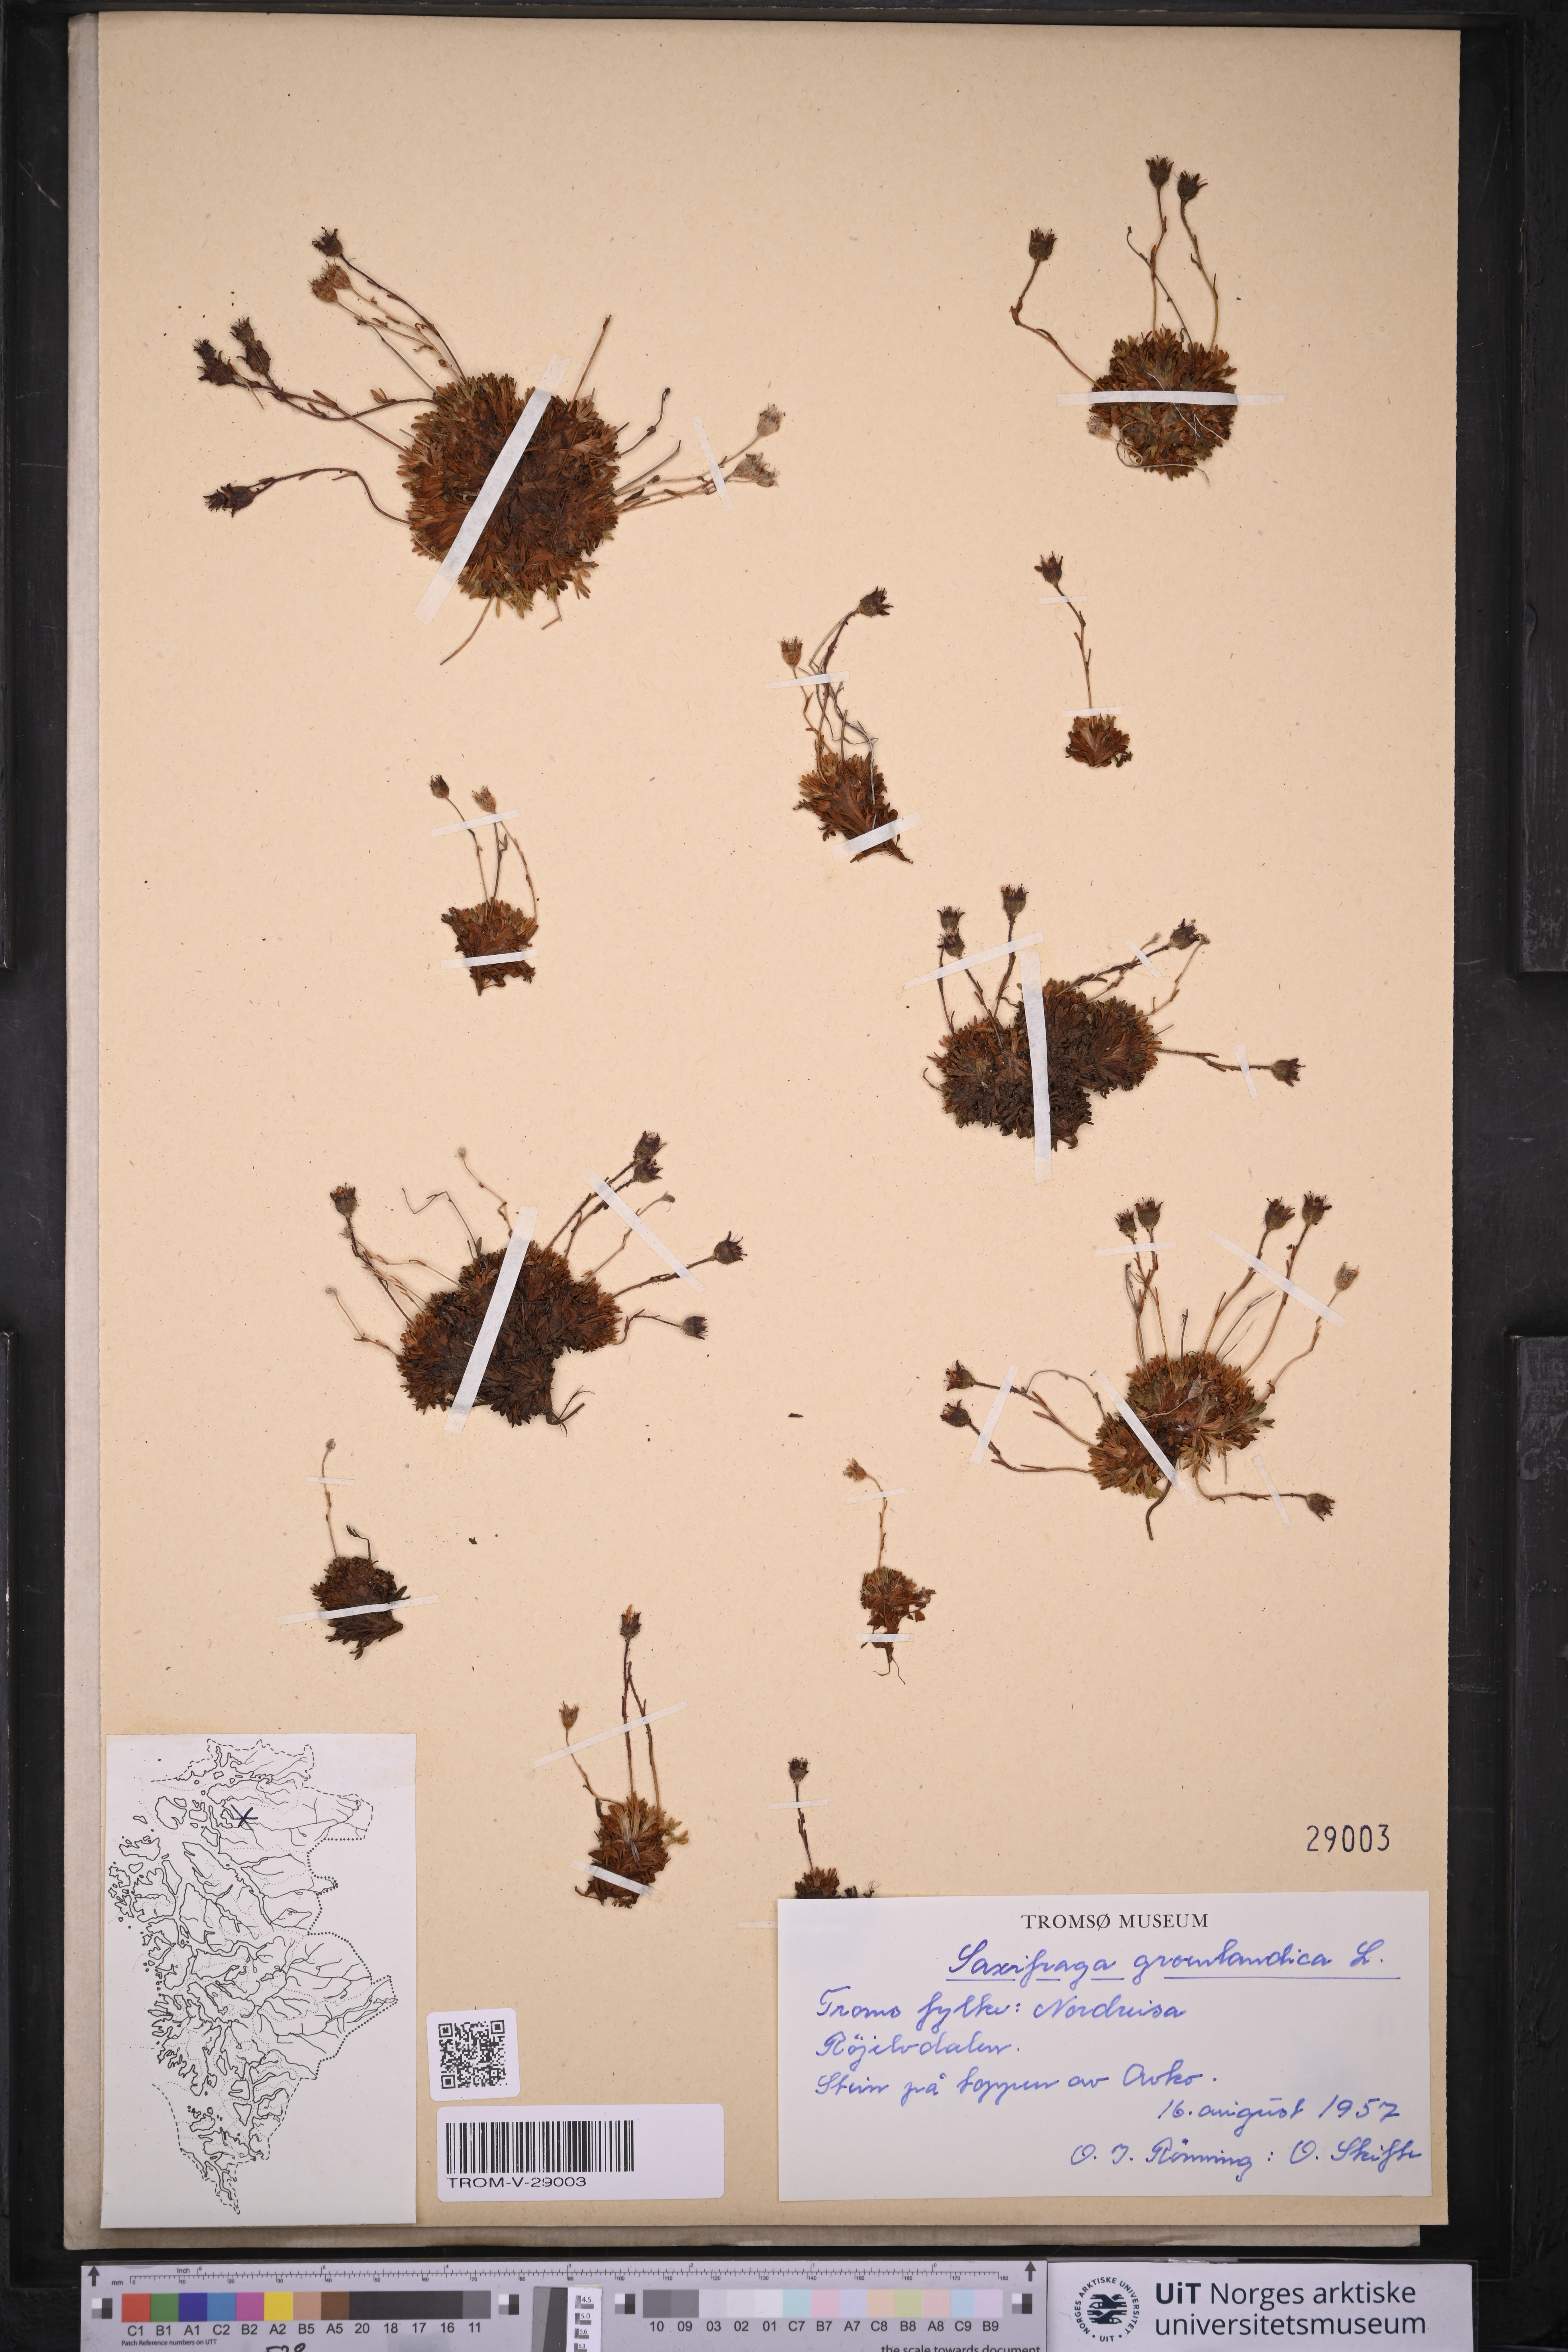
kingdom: Plantae
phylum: Tracheophyta
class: Magnoliopsida
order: Saxifragales
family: Saxifragaceae
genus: Saxifraga
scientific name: Saxifraga cespitosa
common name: Tufted saxifrage
